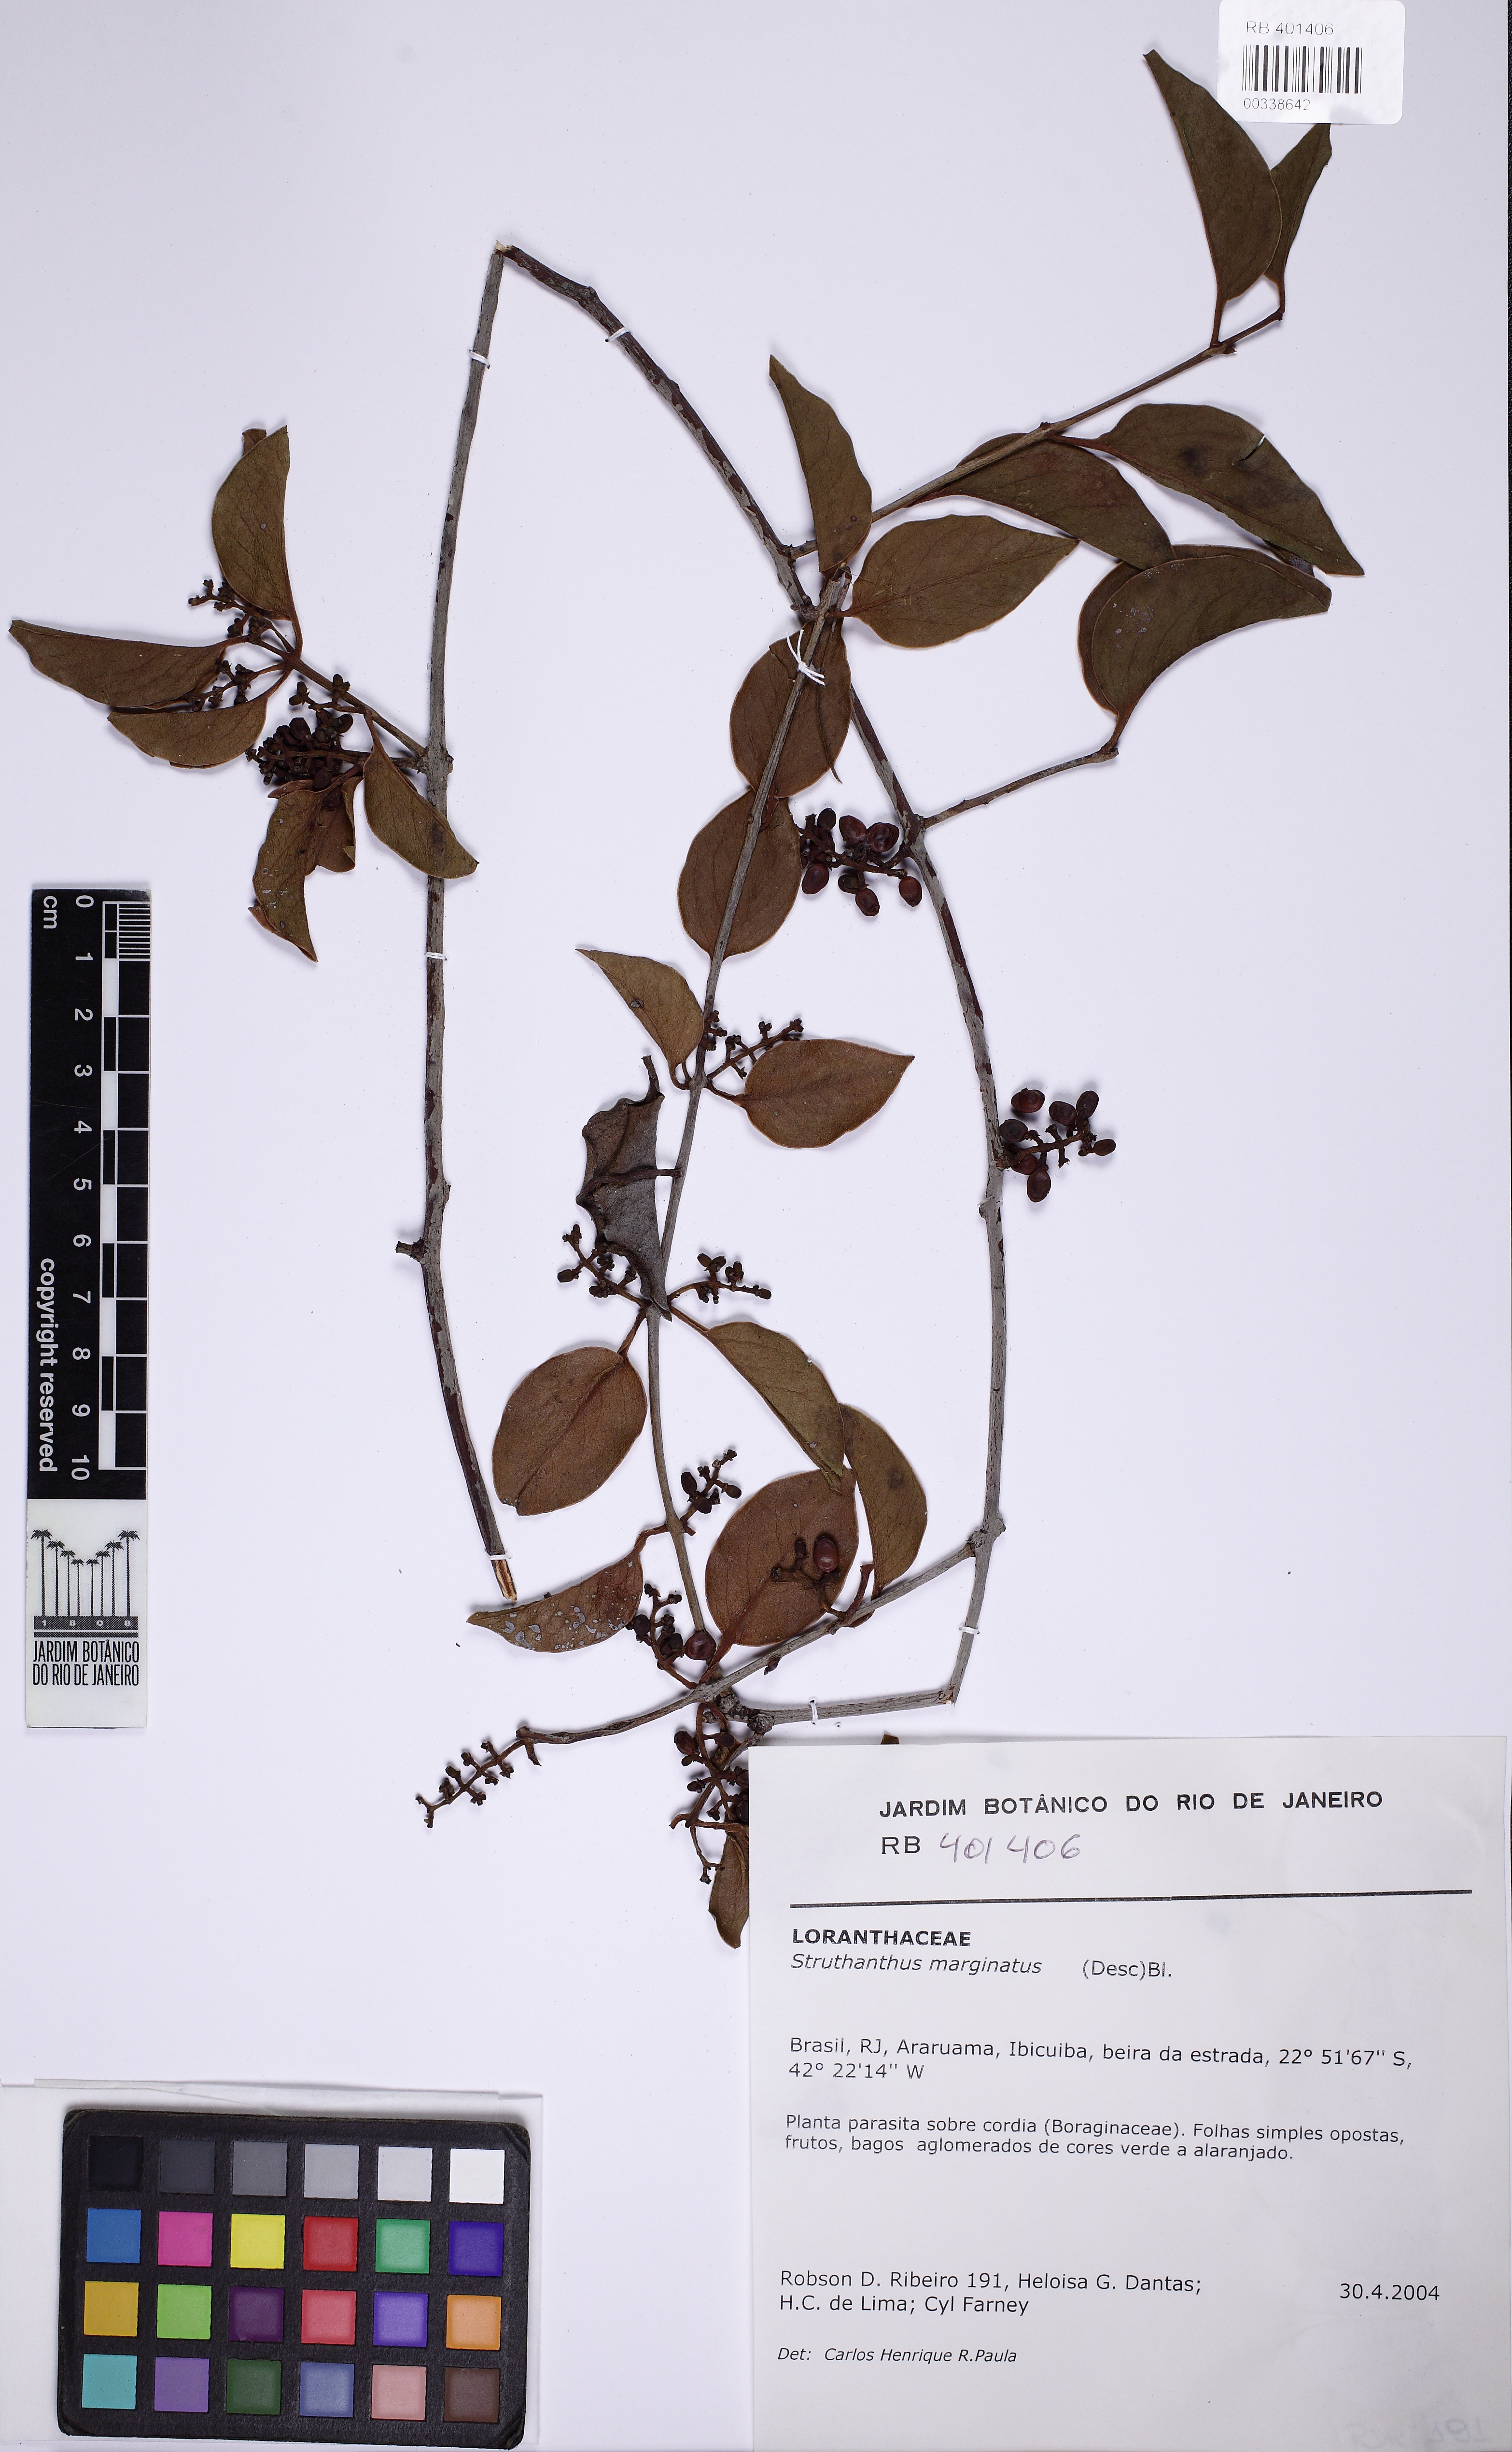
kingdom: Plantae
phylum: Tracheophyta
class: Magnoliopsida
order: Santalales
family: Loranthaceae
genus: Struthanthus
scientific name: Struthanthus marginatus
